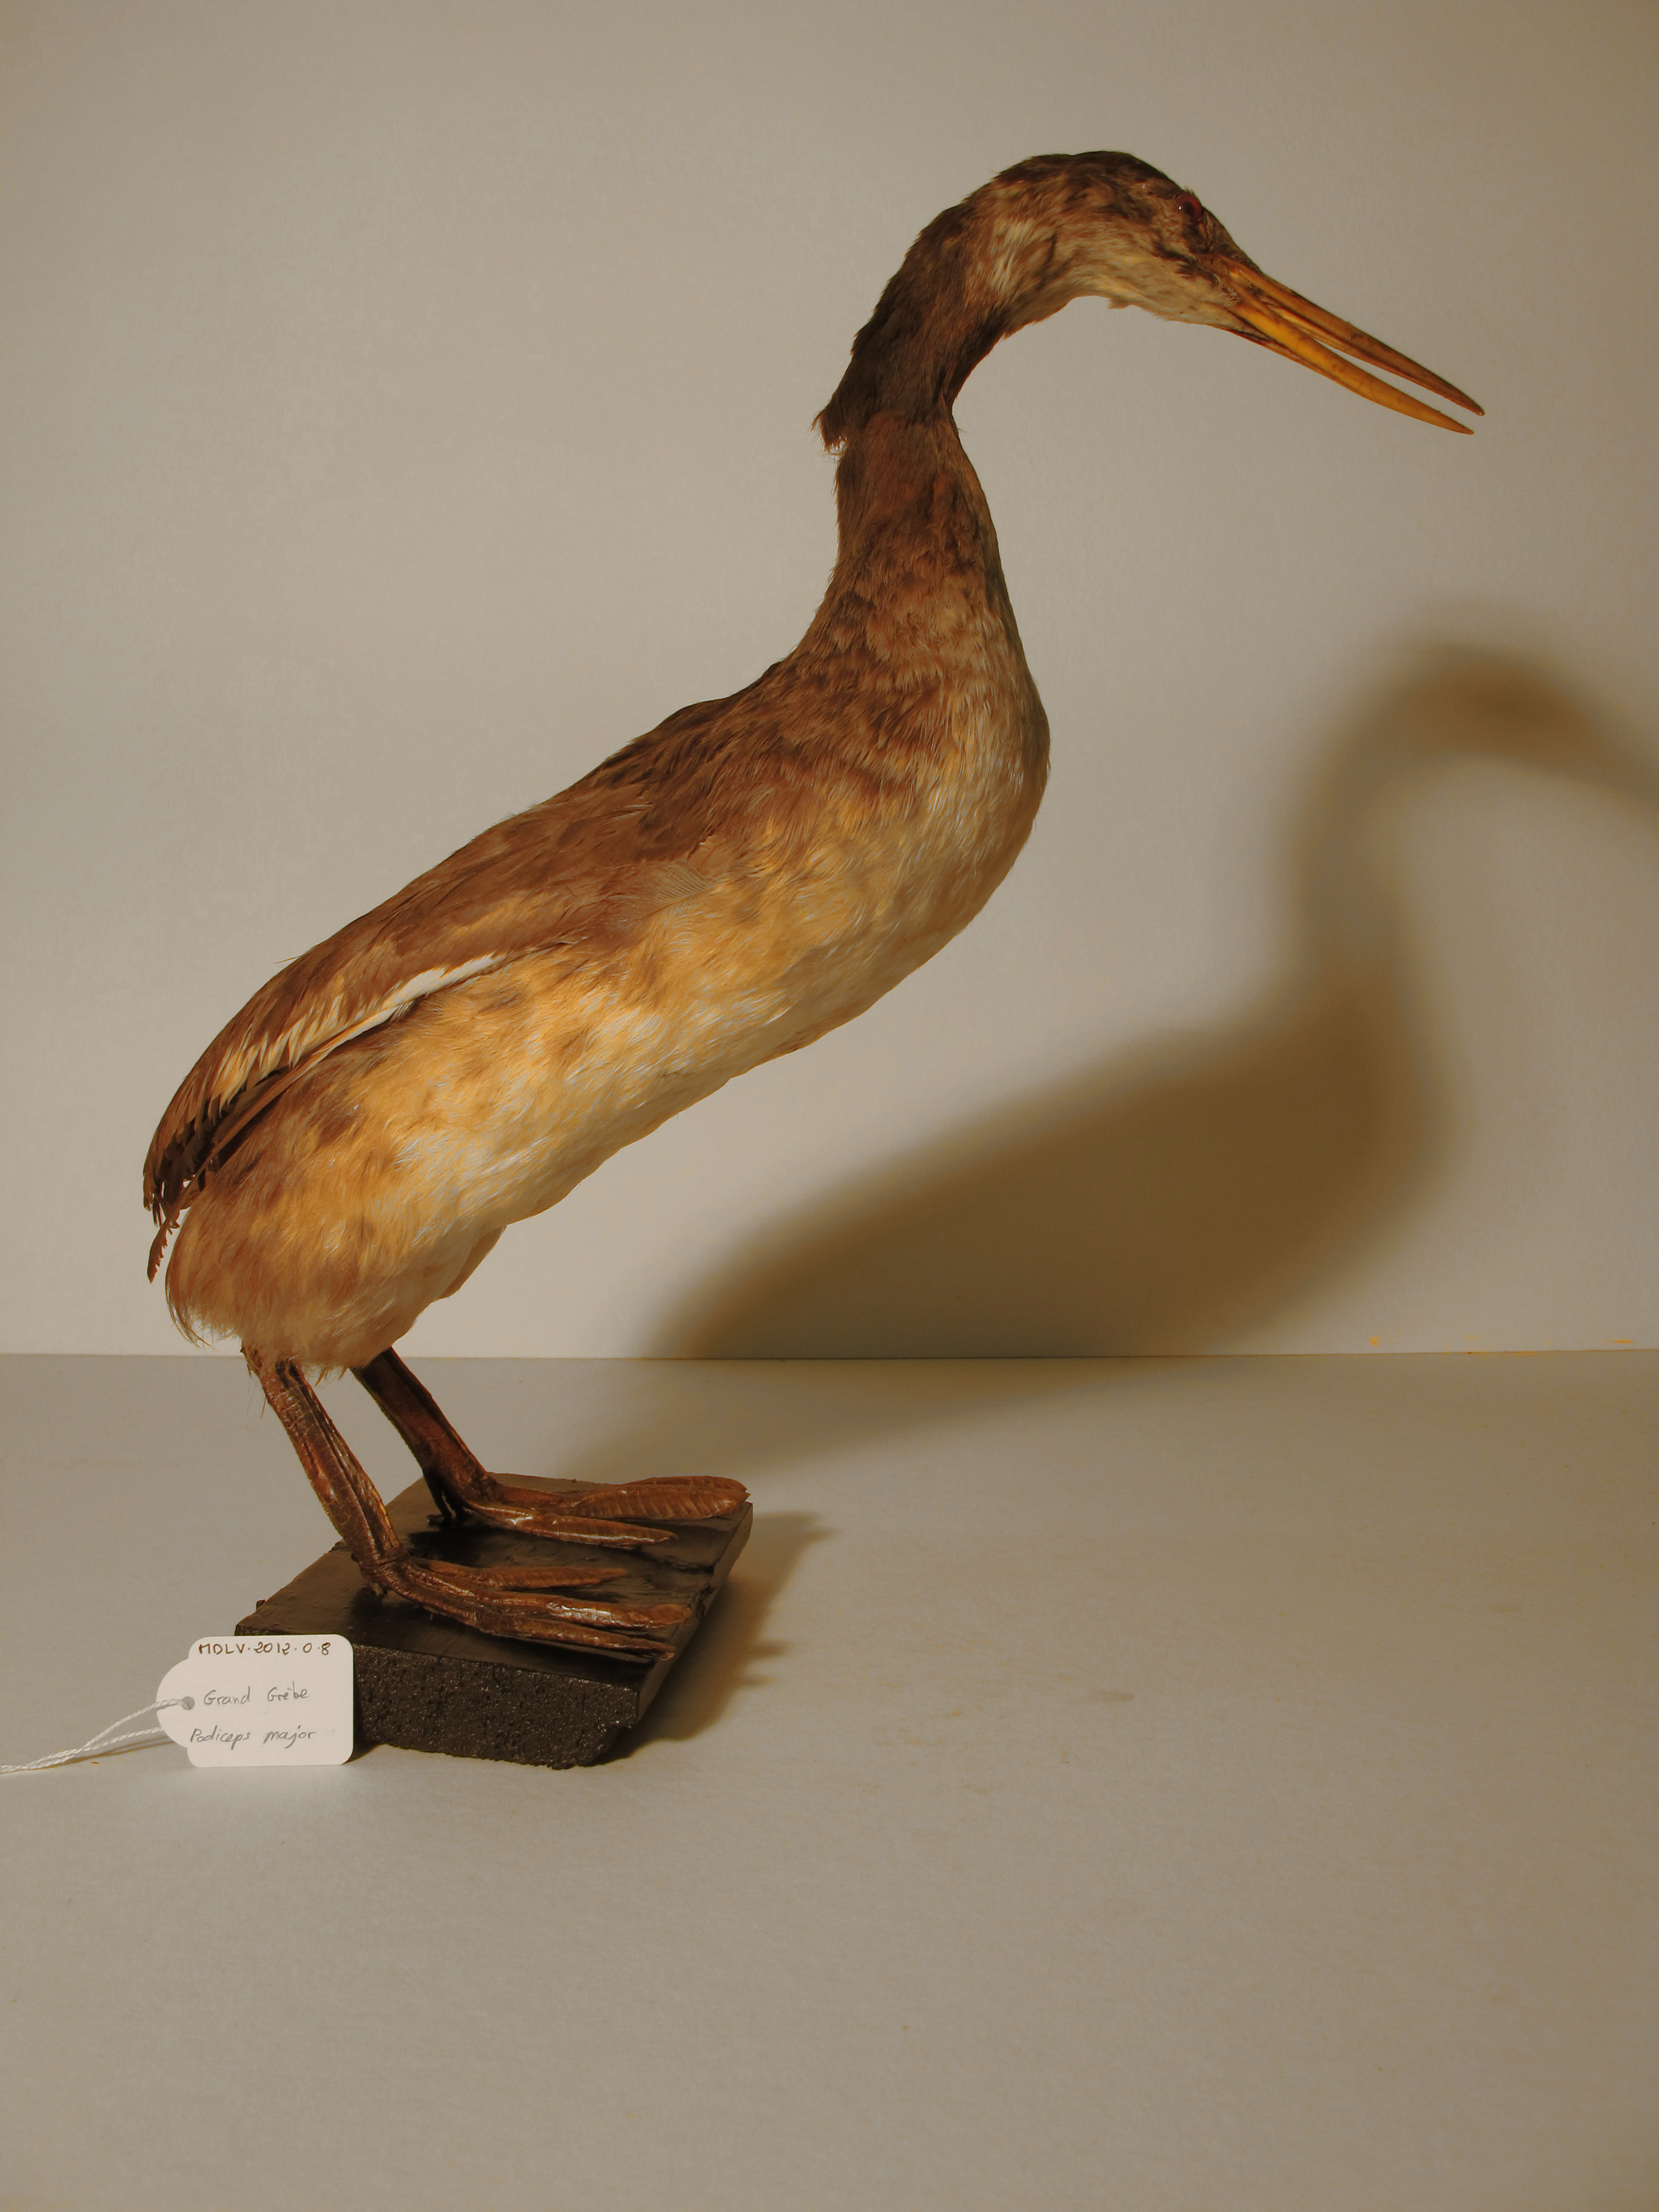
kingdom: Animalia
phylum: Chordata
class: Aves
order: Podicipediformes
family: Podicipedidae
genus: Podiceps
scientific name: Podiceps major
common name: Great Grebe
